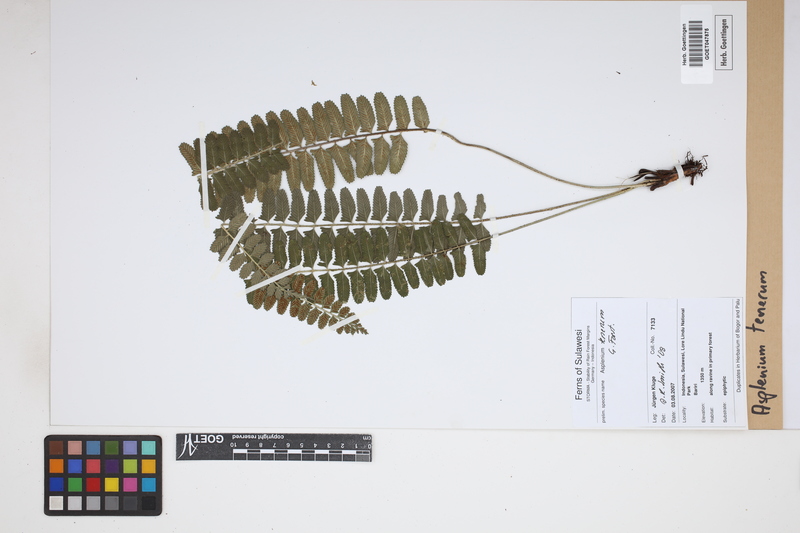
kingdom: Plantae
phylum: Tracheophyta
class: Polypodiopsida
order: Polypodiales
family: Aspleniaceae
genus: Asplenium
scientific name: Asplenium tenerum
